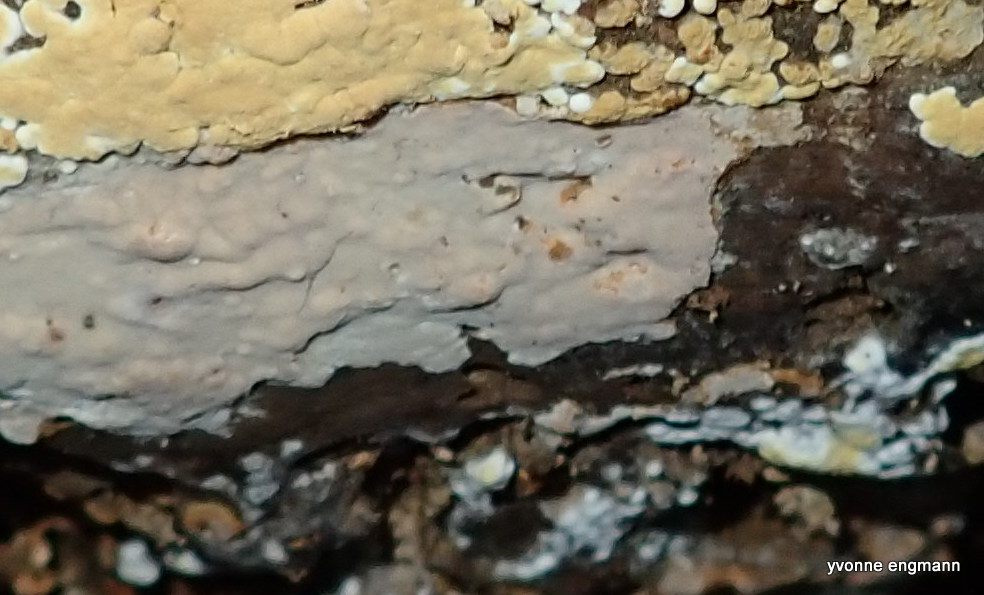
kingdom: Fungi
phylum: Basidiomycota
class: Agaricomycetes
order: Russulales
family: Peniophoraceae
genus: Gloiothele
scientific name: Gloiothele lactescens
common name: bitter olieskind
